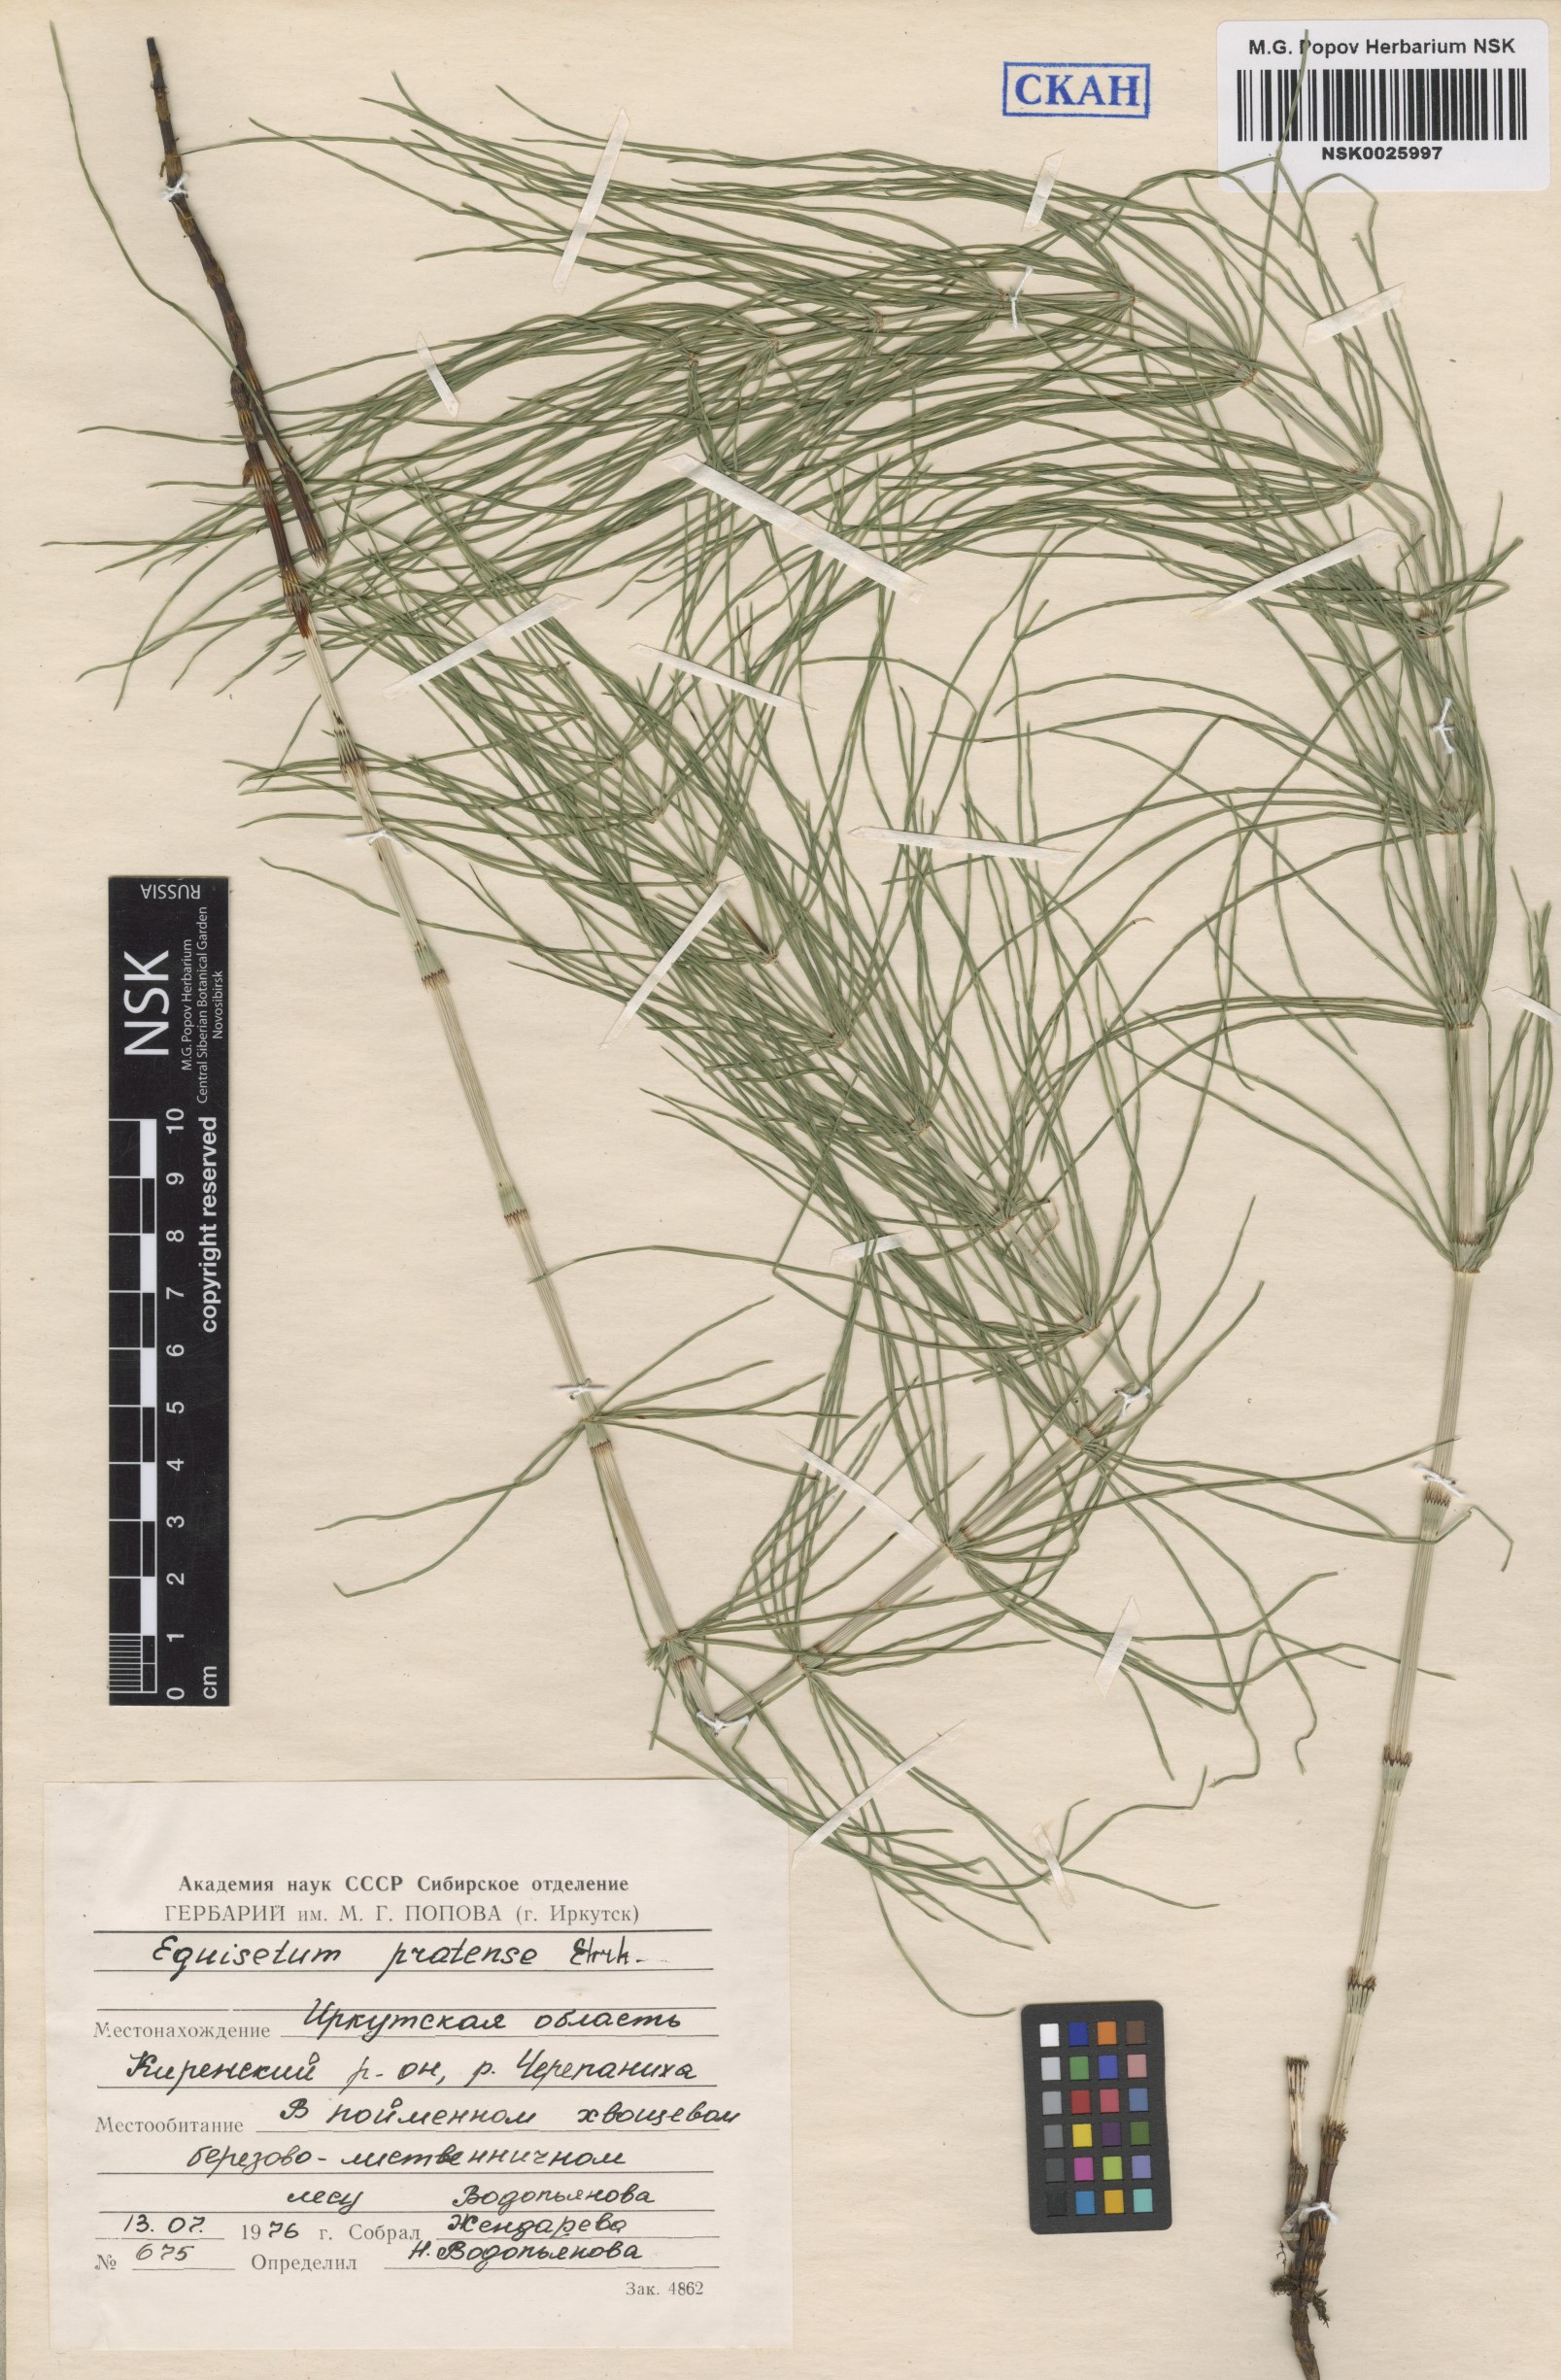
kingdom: Plantae
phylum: Tracheophyta
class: Polypodiopsida
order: Equisetales
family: Equisetaceae
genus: Equisetum
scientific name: Equisetum pratense
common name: Meadow horsetail
